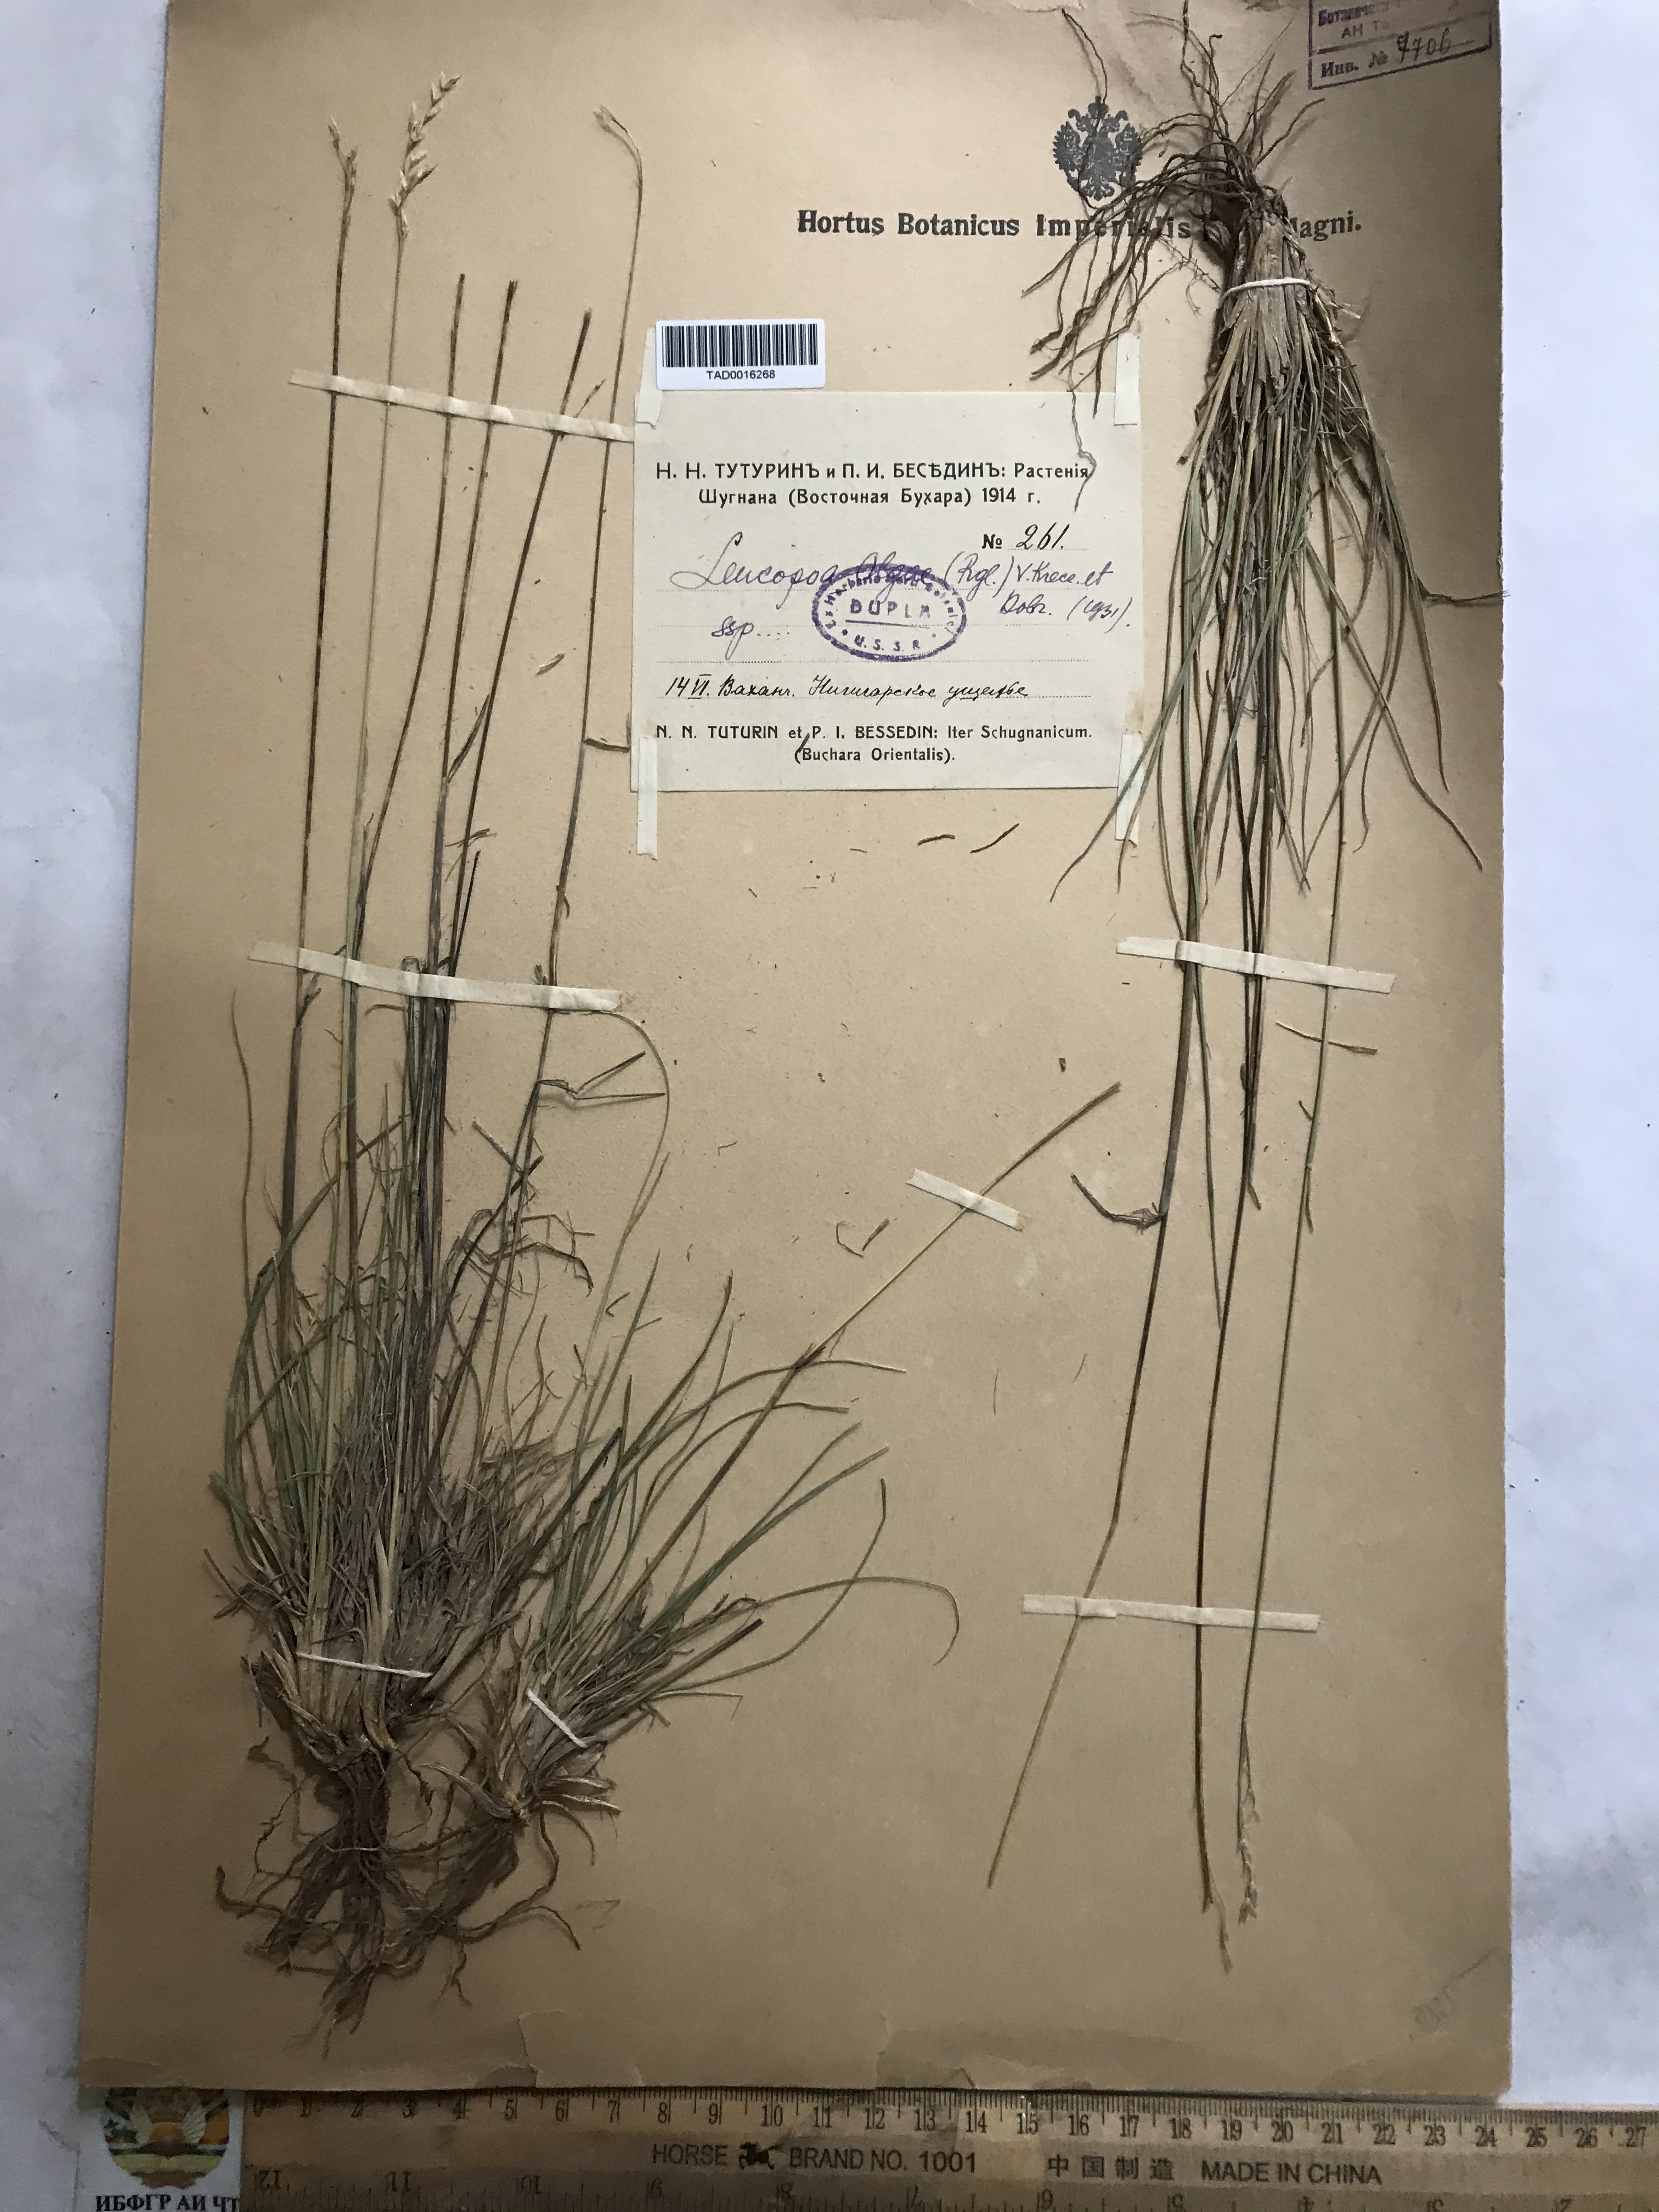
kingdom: Plantae
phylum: Tracheophyta
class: Liliopsida
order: Poales
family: Poaceae
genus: Festuca
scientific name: Festuca
